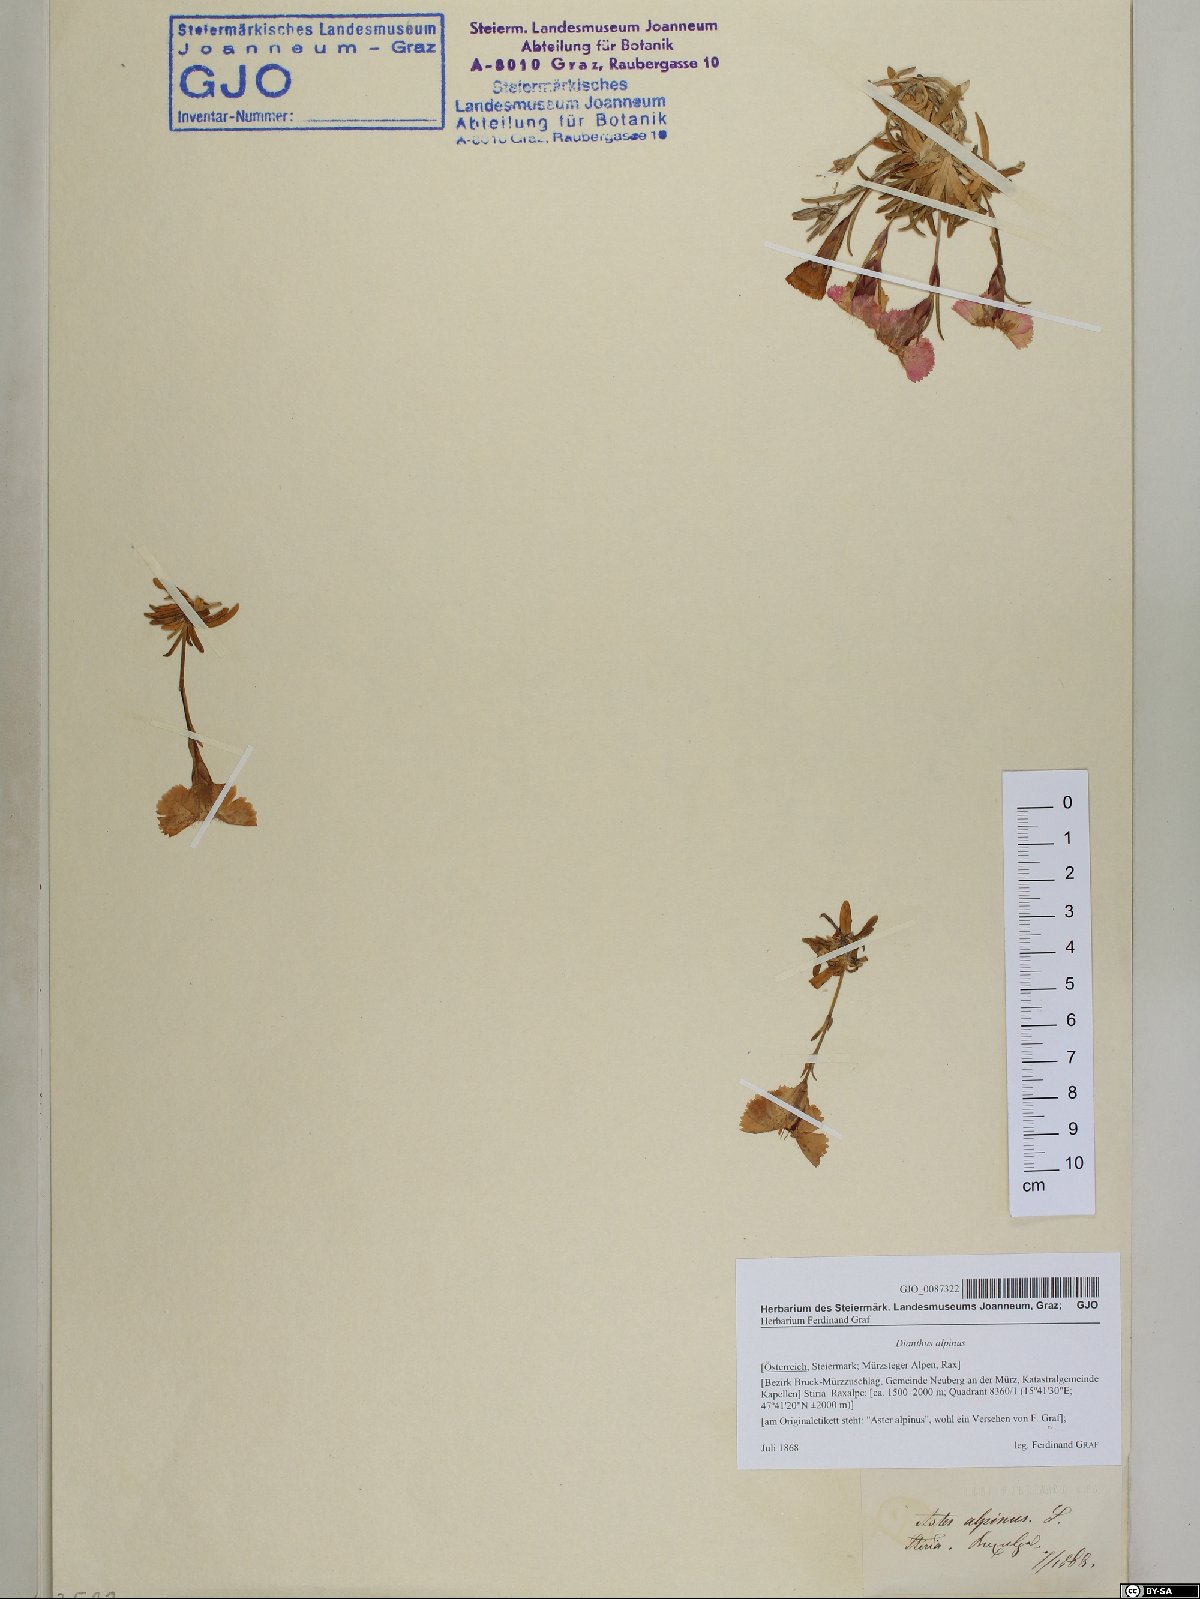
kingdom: Plantae
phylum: Tracheophyta
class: Magnoliopsida
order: Caryophyllales
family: Caryophyllaceae
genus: Dianthus
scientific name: Dianthus alpinus
